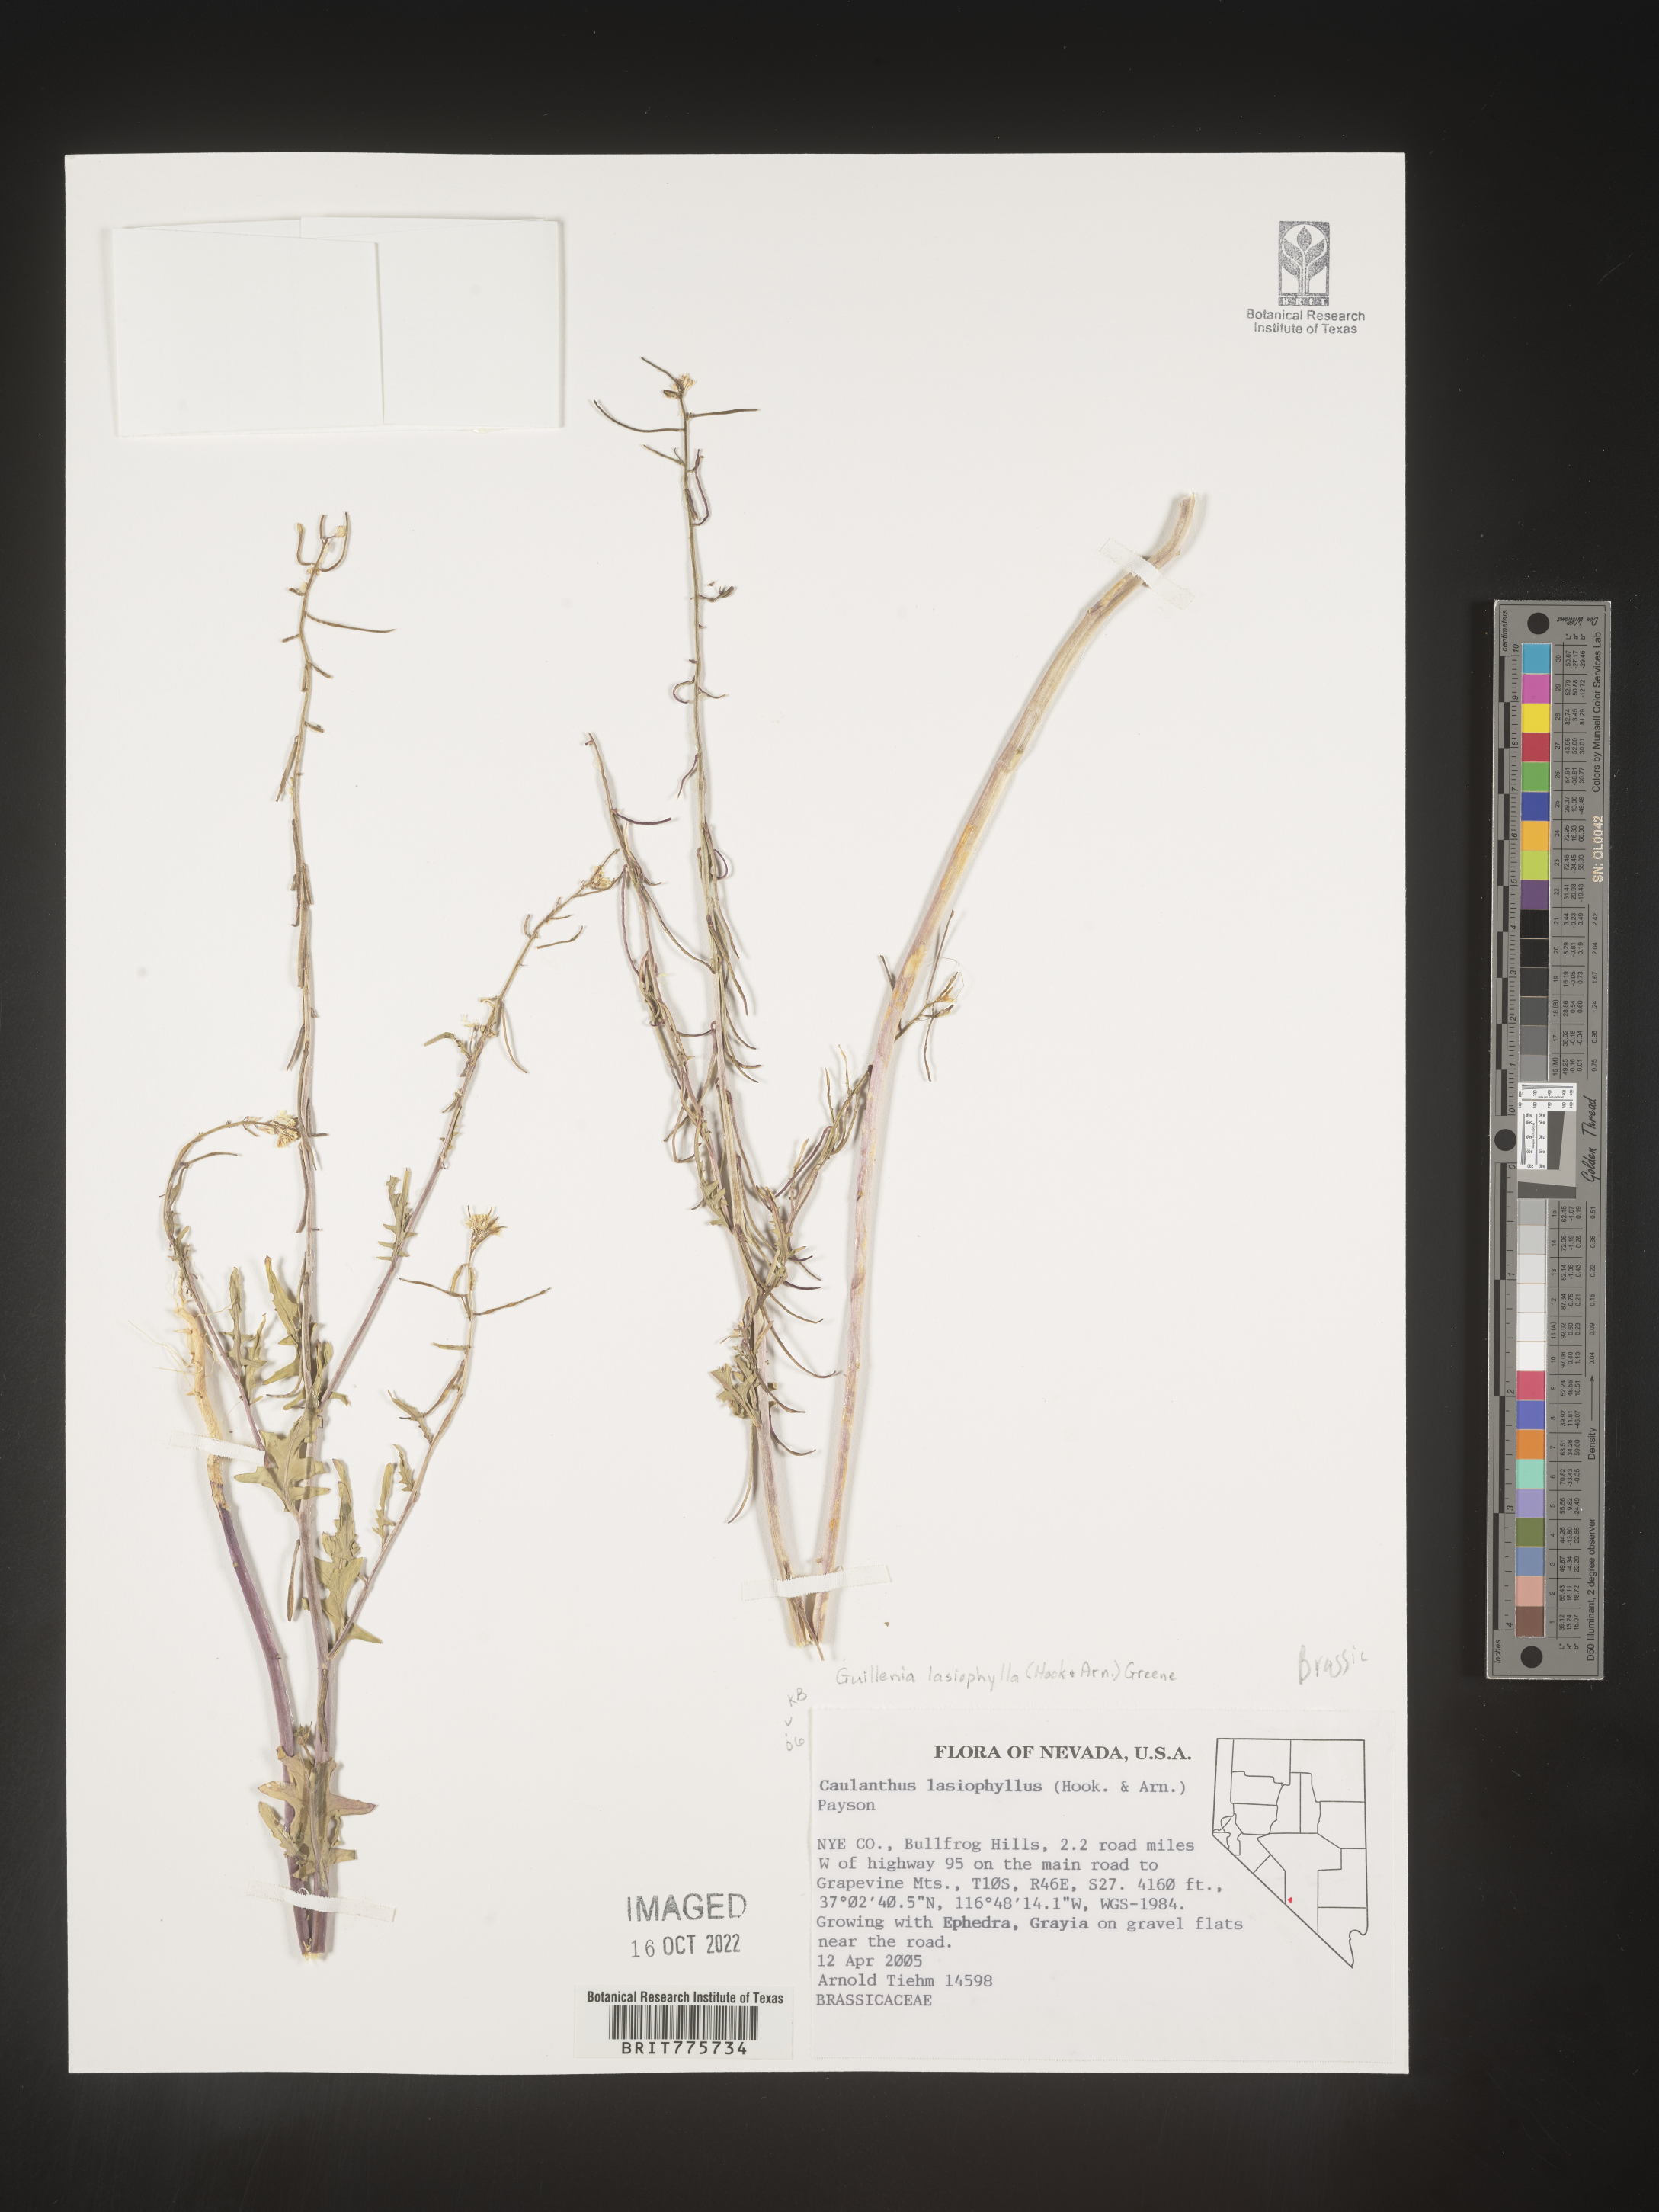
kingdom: Plantae
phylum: Tracheophyta
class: Magnoliopsida
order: Brassicales
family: Brassicaceae
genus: Streptanthus
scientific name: Streptanthus
